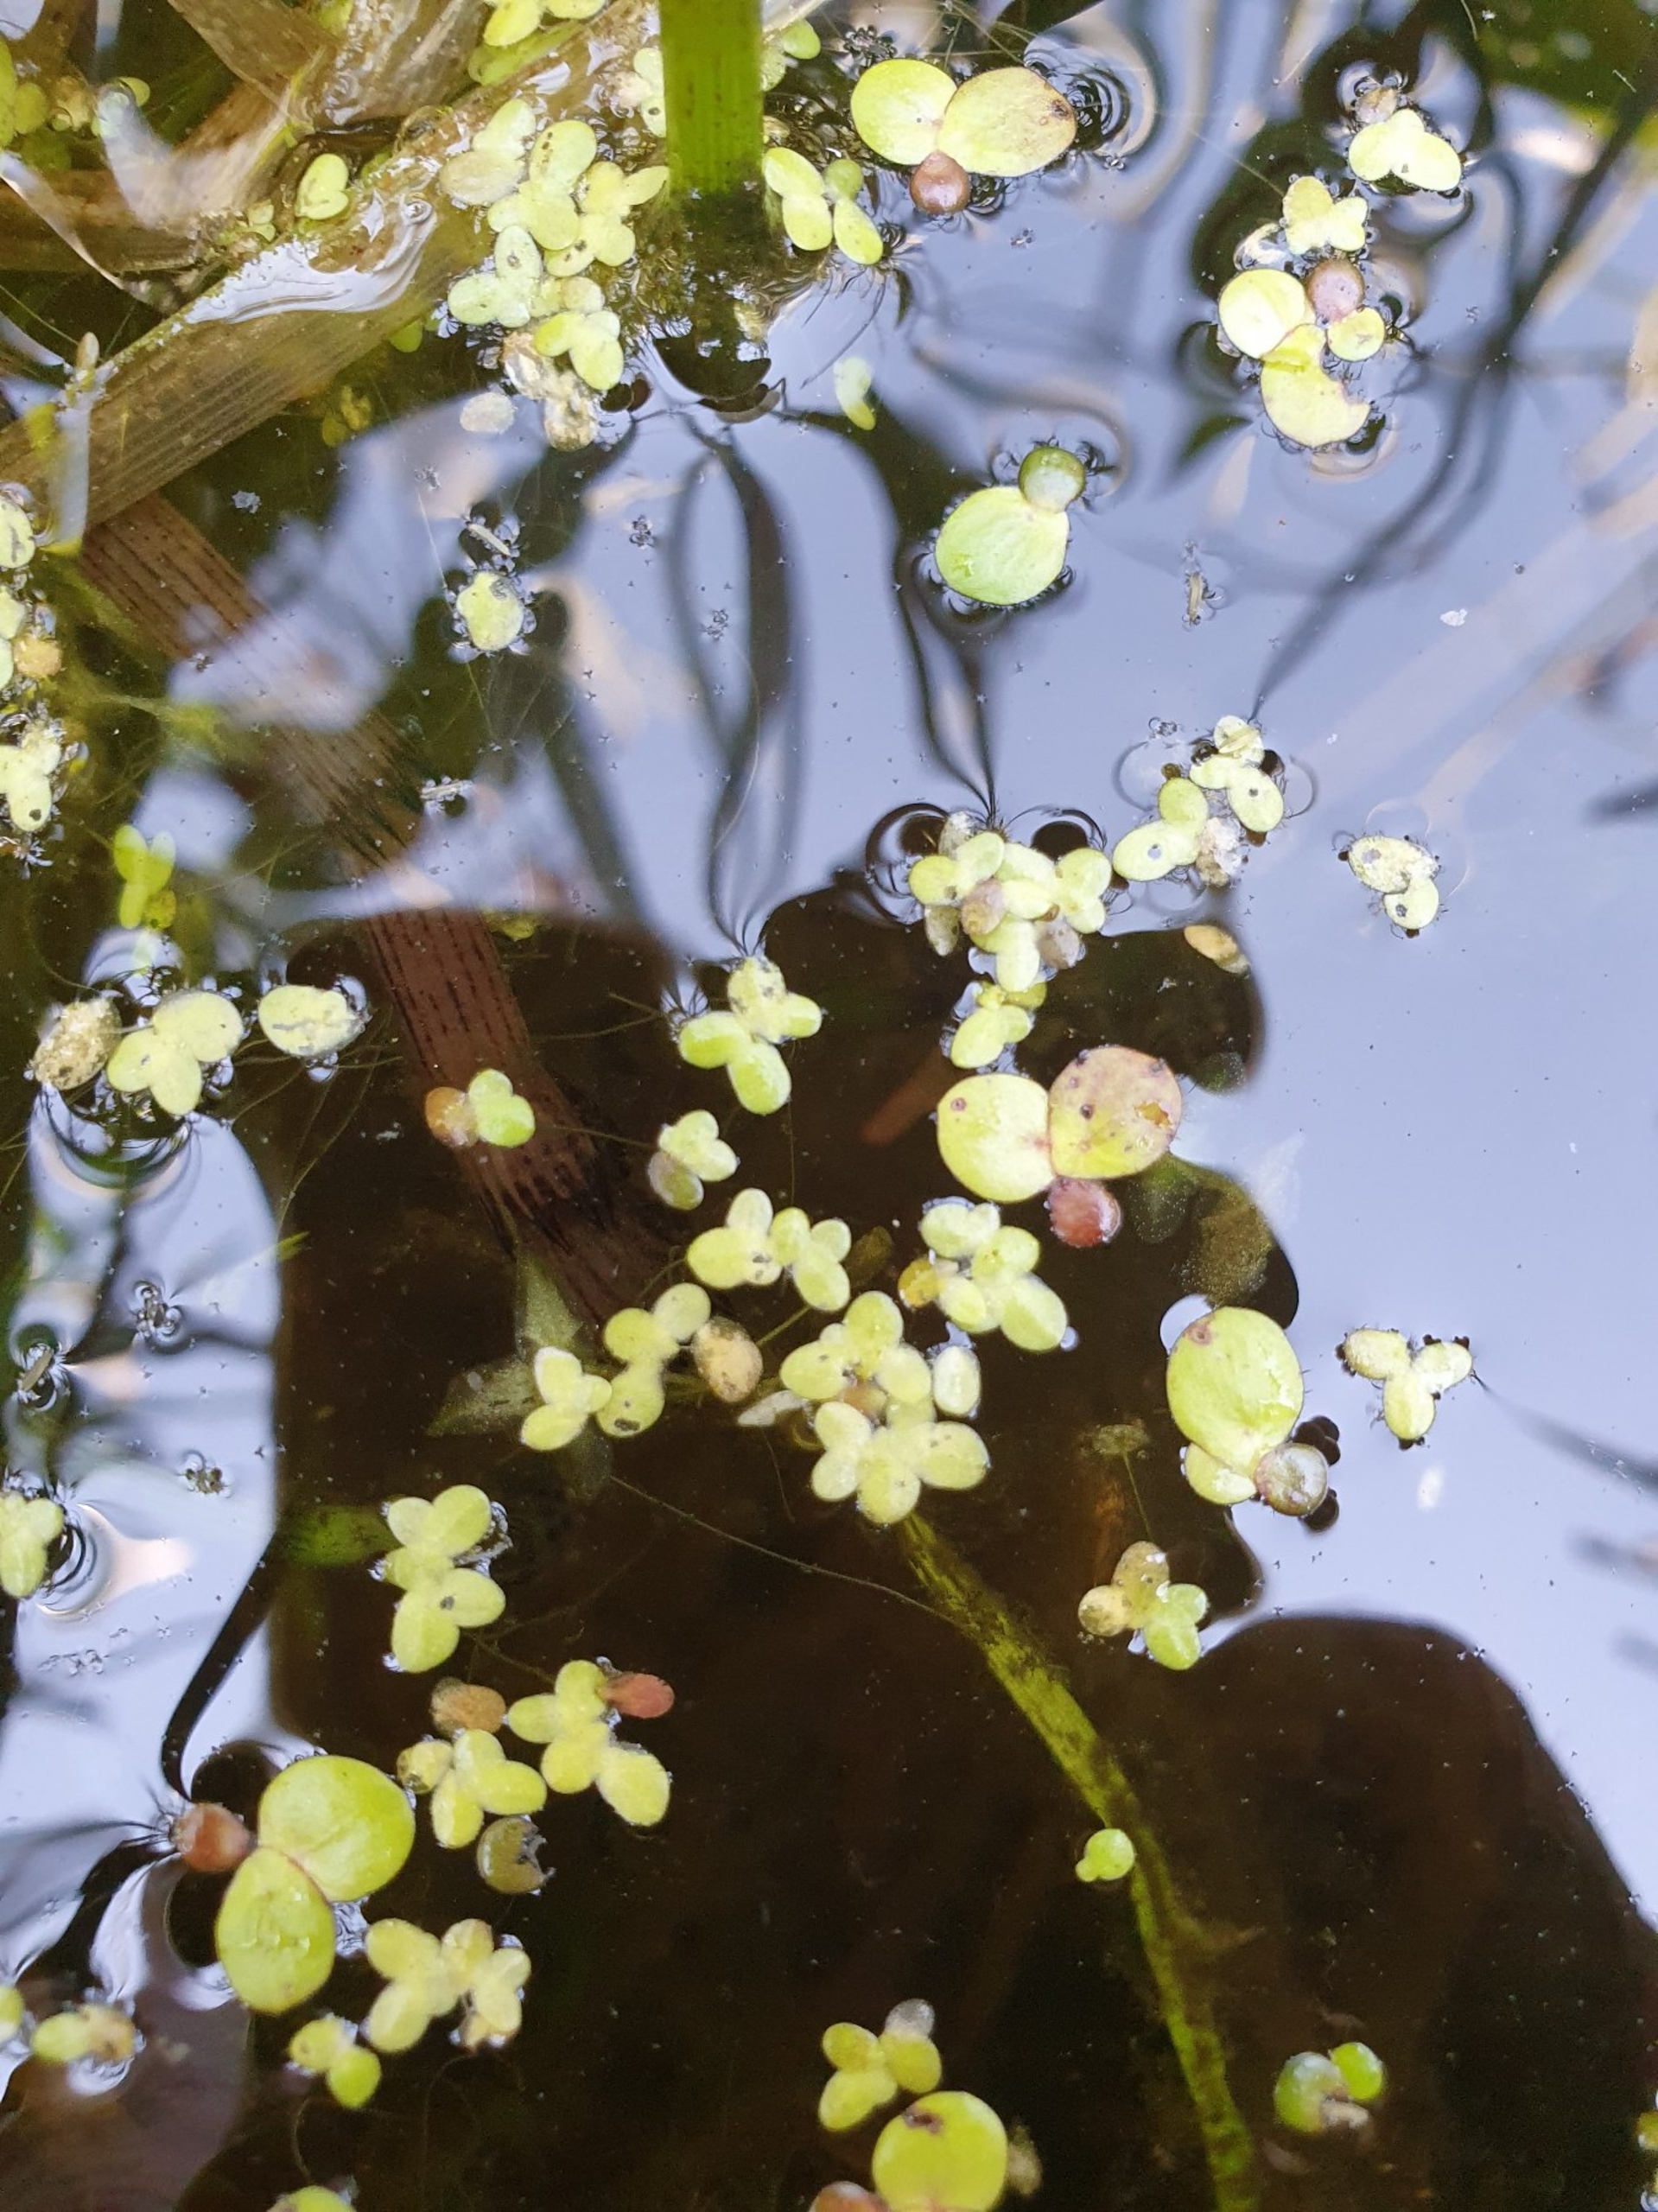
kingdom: Plantae
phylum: Tracheophyta
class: Liliopsida
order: Alismatales
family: Araceae
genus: Lemna
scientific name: Lemna minor
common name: Liden andemad
